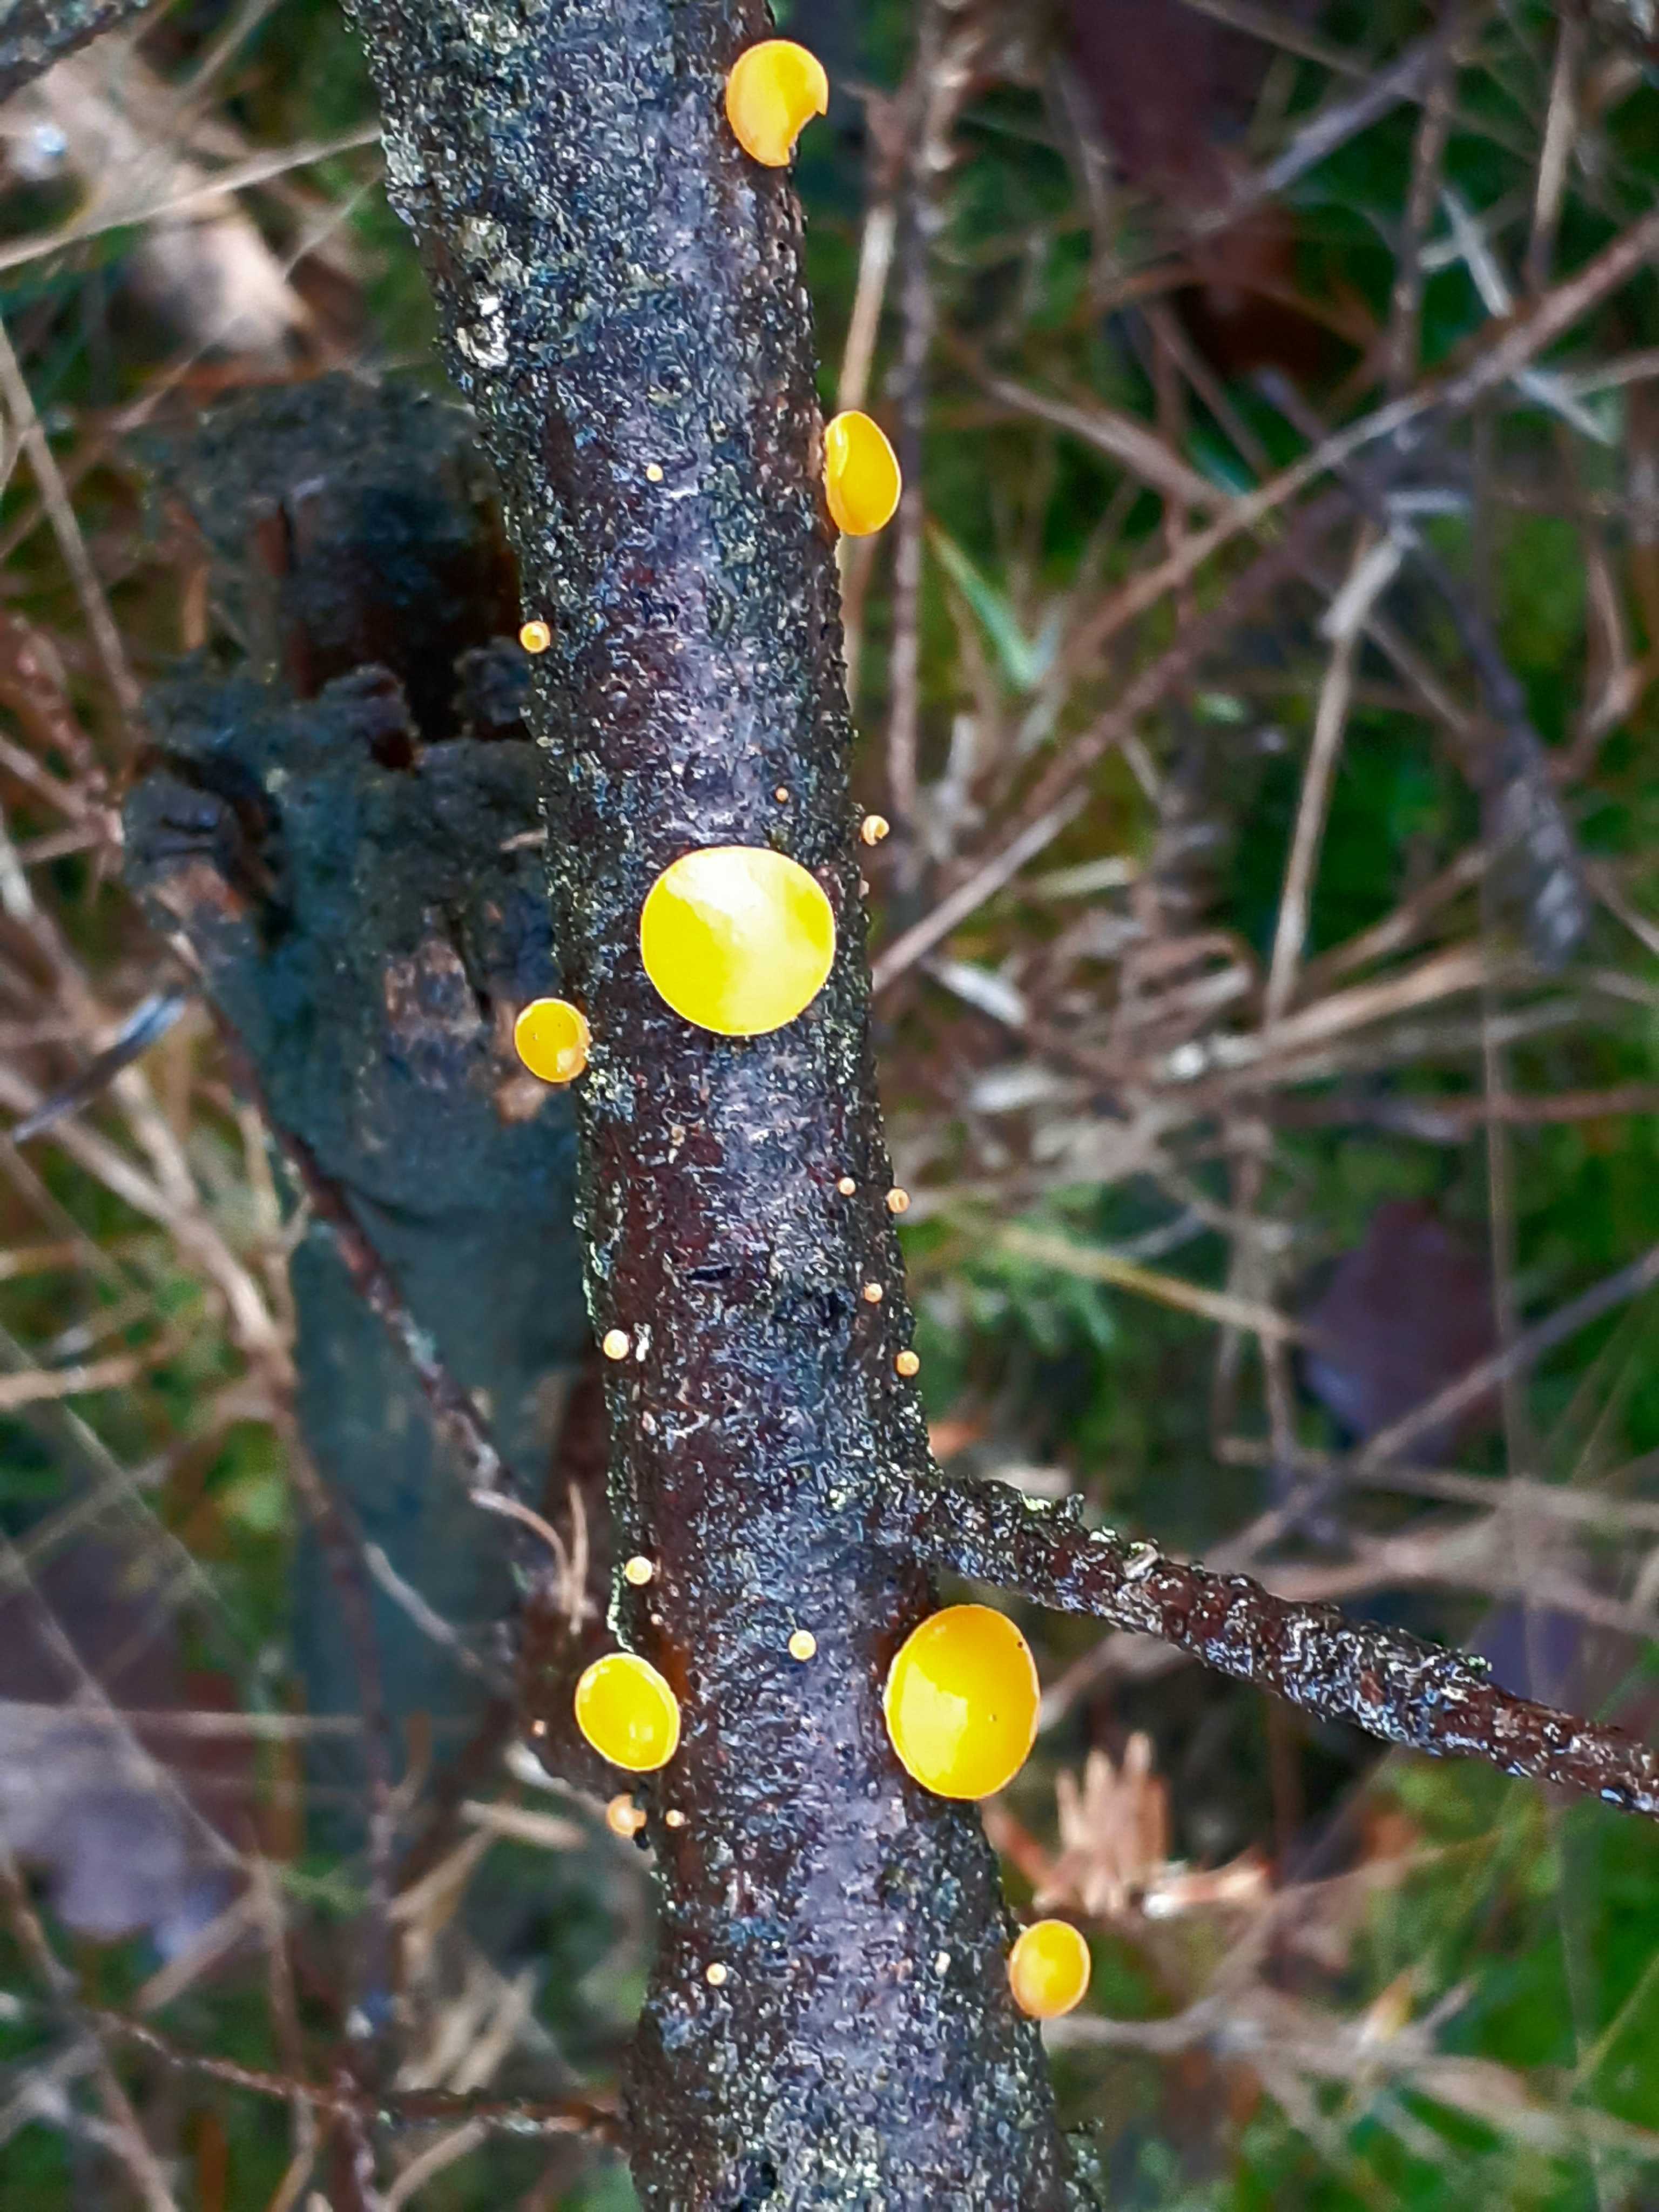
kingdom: Fungi
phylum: Ascomycota
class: Pezizomycetes
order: Pezizales
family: Sarcoscyphaceae
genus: Pithya
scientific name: Pithya vulgaris
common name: stor dukatbæger
